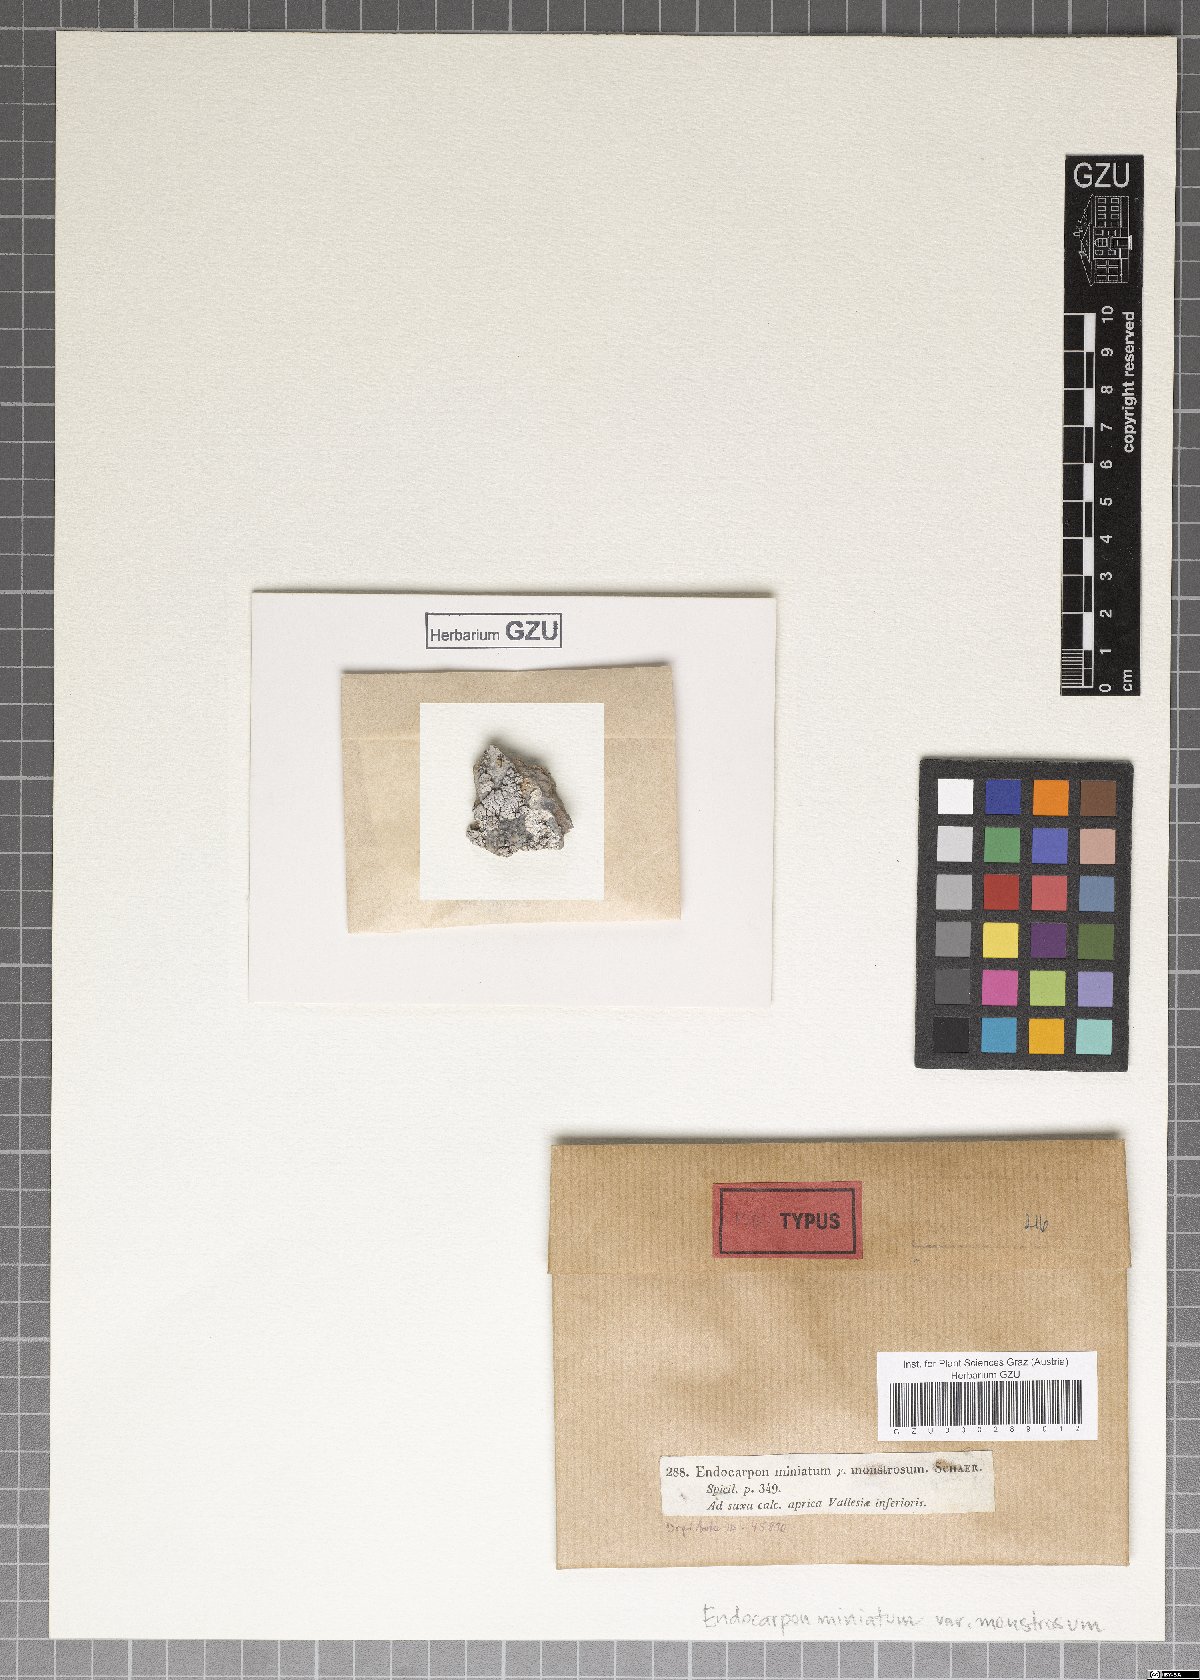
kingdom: Fungi
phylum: Ascomycota
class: Eurotiomycetes
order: Verrucariales
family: Verrucariaceae
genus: Placocarpus
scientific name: Placocarpus schaereri
